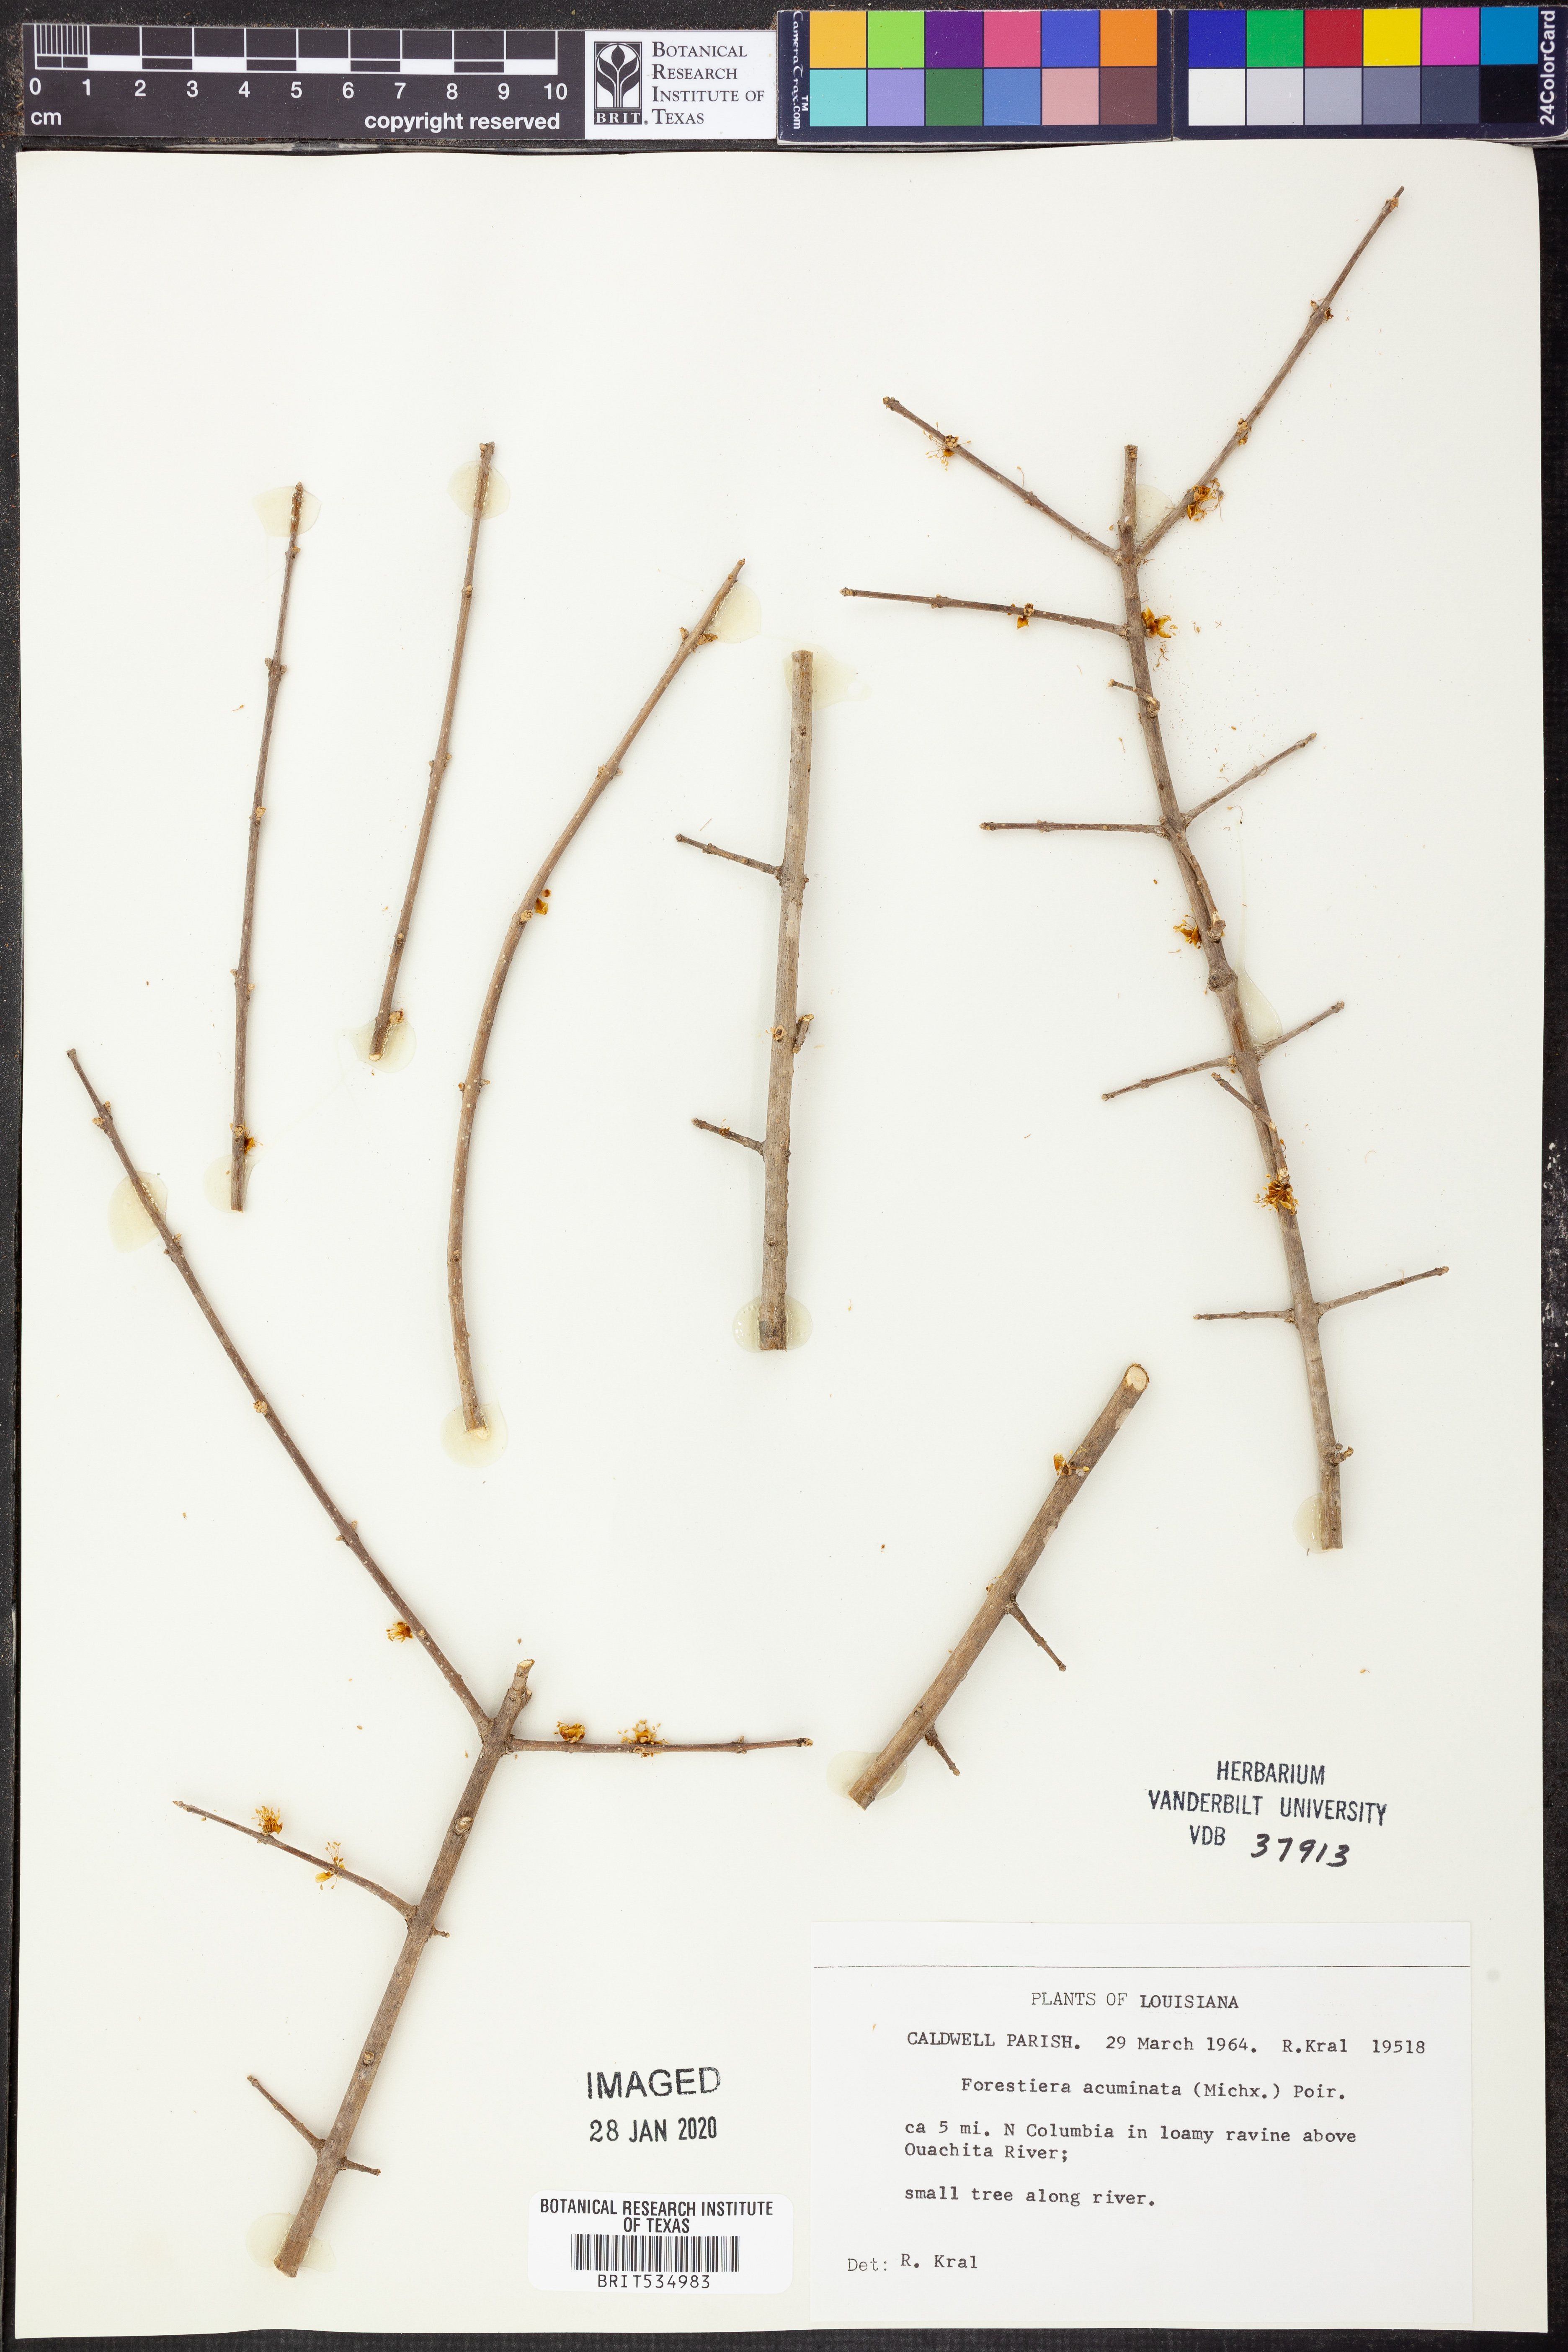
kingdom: Plantae
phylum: Tracheophyta
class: Magnoliopsida
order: Lamiales
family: Oleaceae
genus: Forestiera
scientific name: Forestiera acuminata
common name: Swamp-privet
